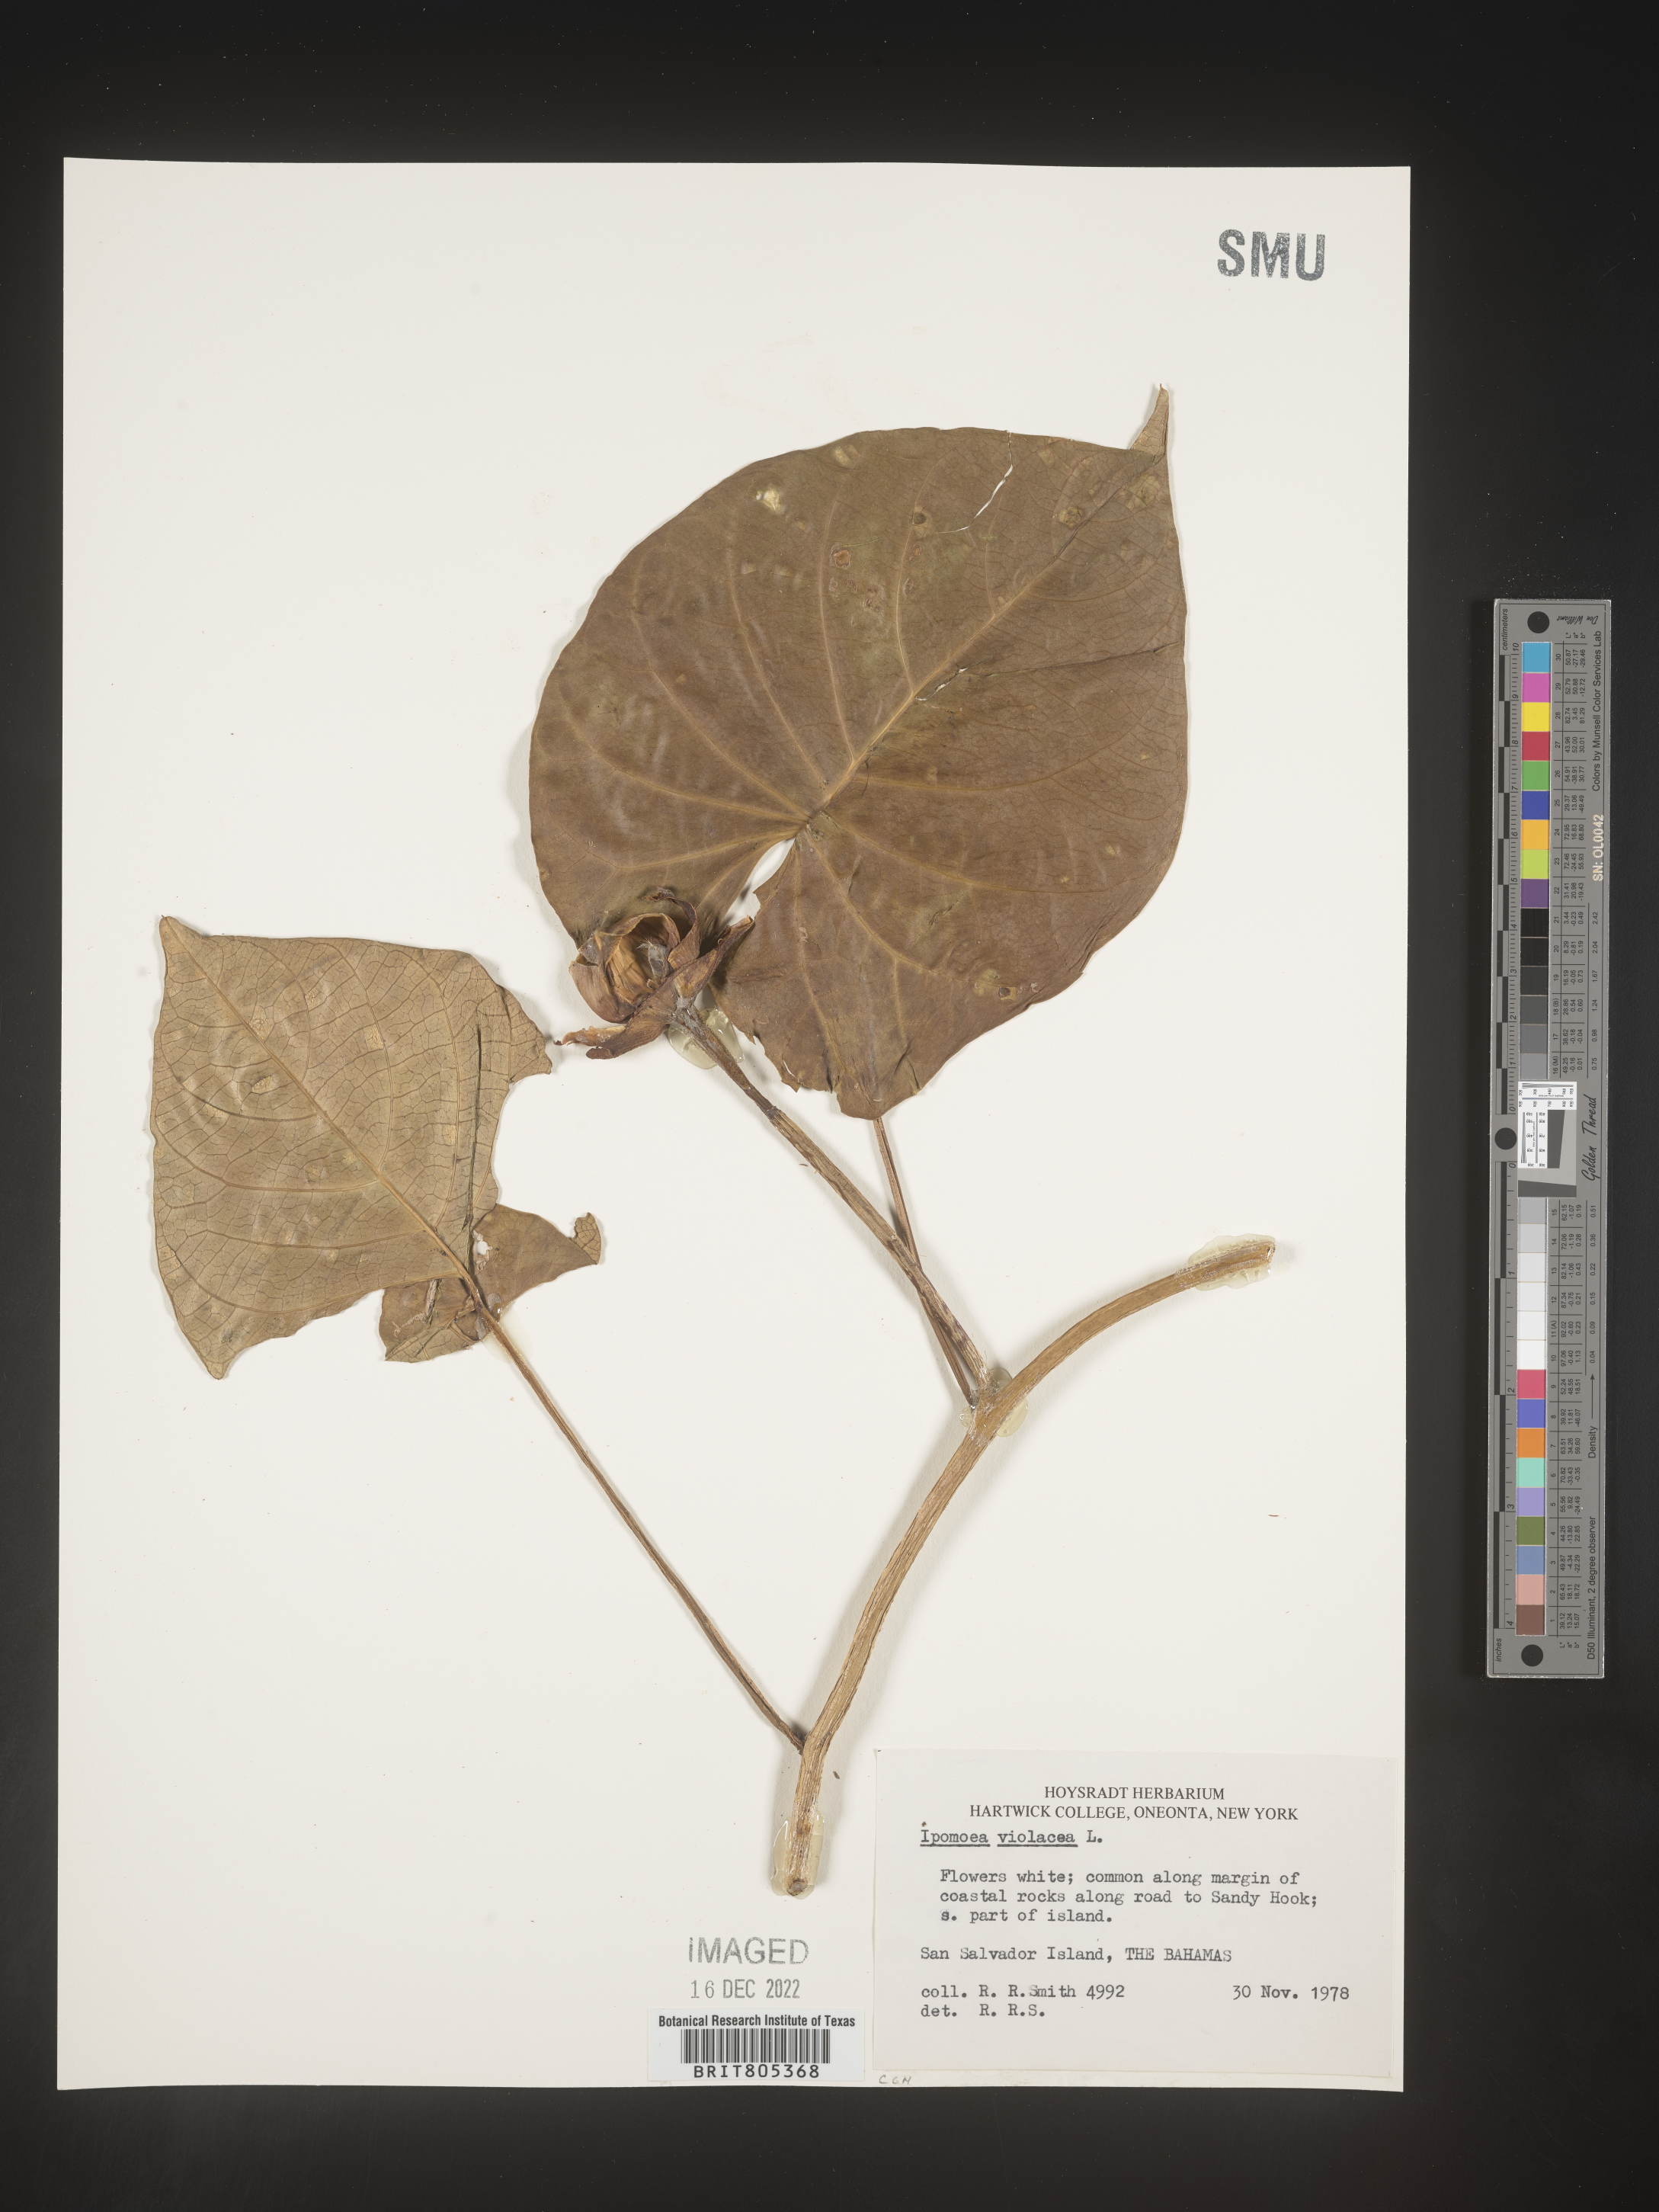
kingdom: Plantae
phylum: Tracheophyta
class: Magnoliopsida
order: Solanales
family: Convolvulaceae
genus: Ipomoea
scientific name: Ipomoea
